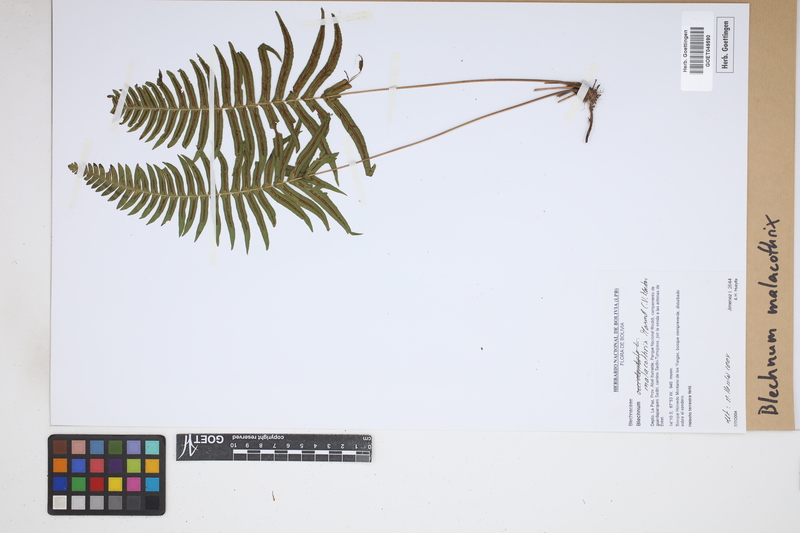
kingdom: Plantae
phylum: Tracheophyta
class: Polypodiopsida
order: Polypodiales
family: Blechnaceae
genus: Blechnum
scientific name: Blechnum malacothrix
